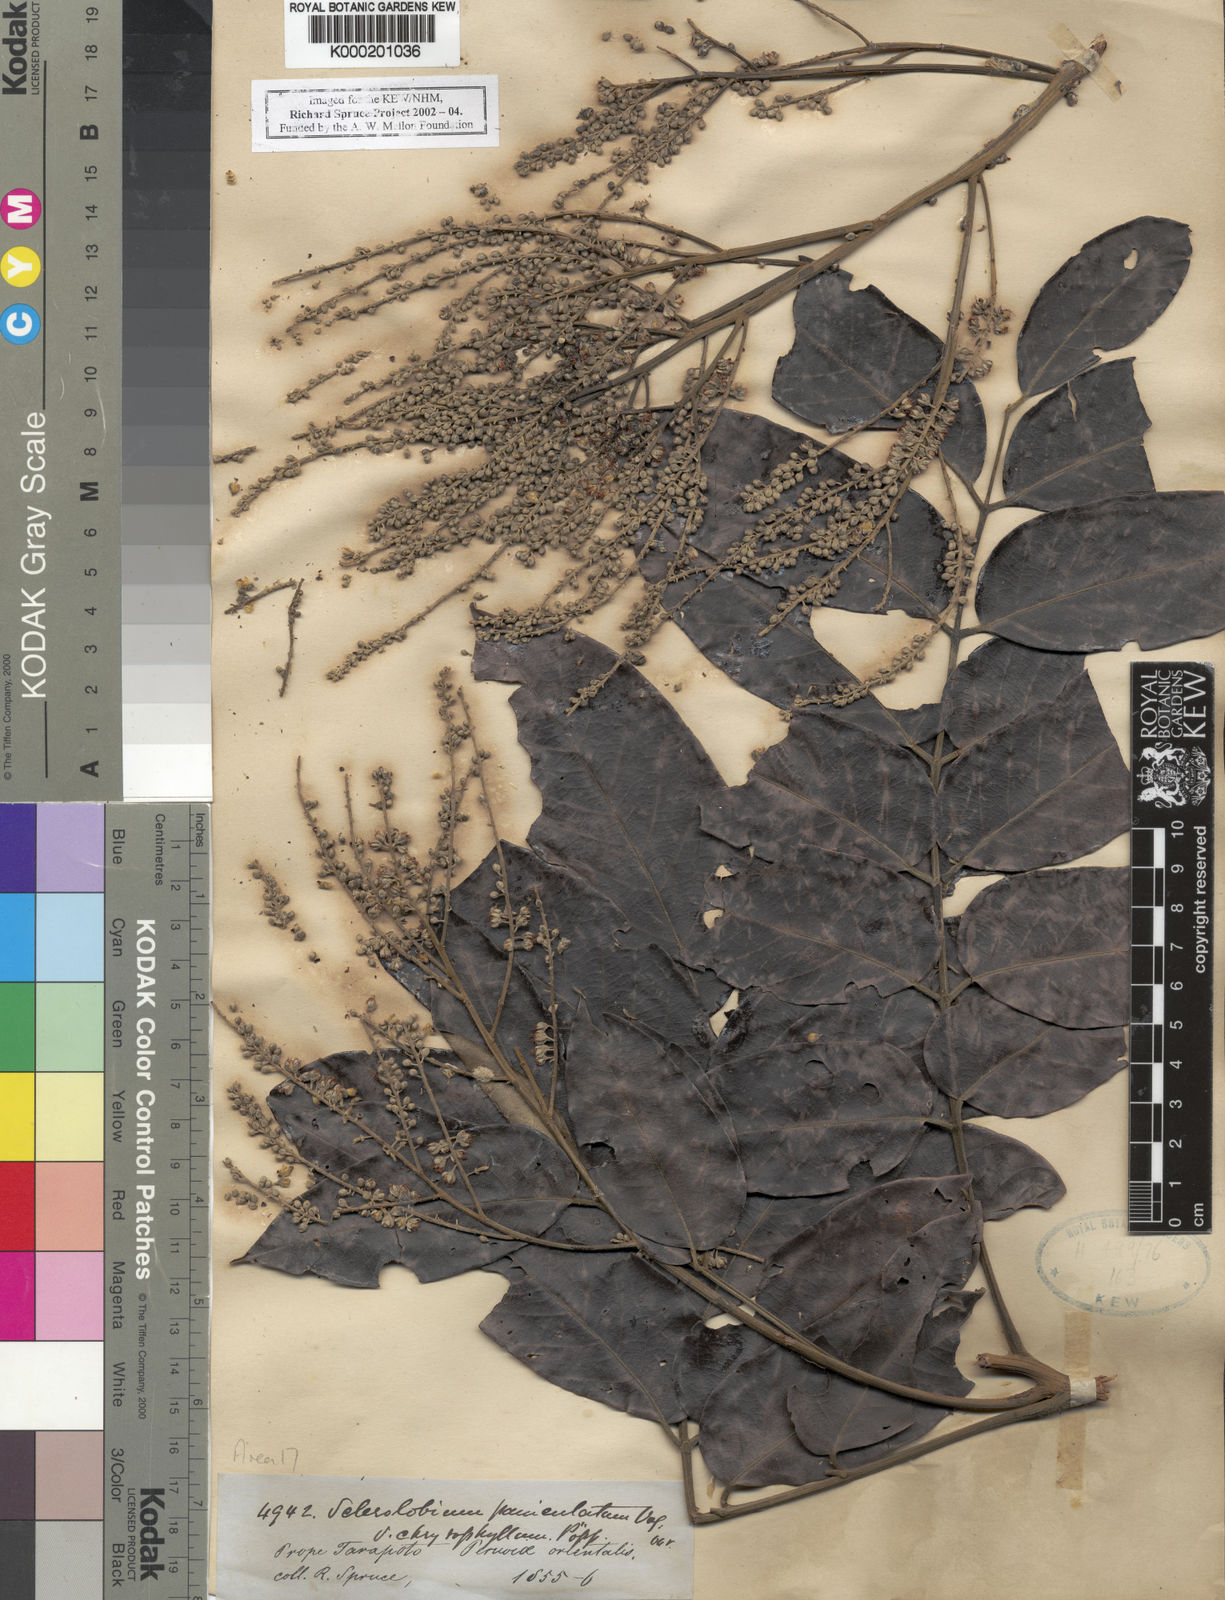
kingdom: Plantae
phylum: Tracheophyta
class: Magnoliopsida
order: Fabales
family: Fabaceae
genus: Tachigali
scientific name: Tachigali vulgaris
